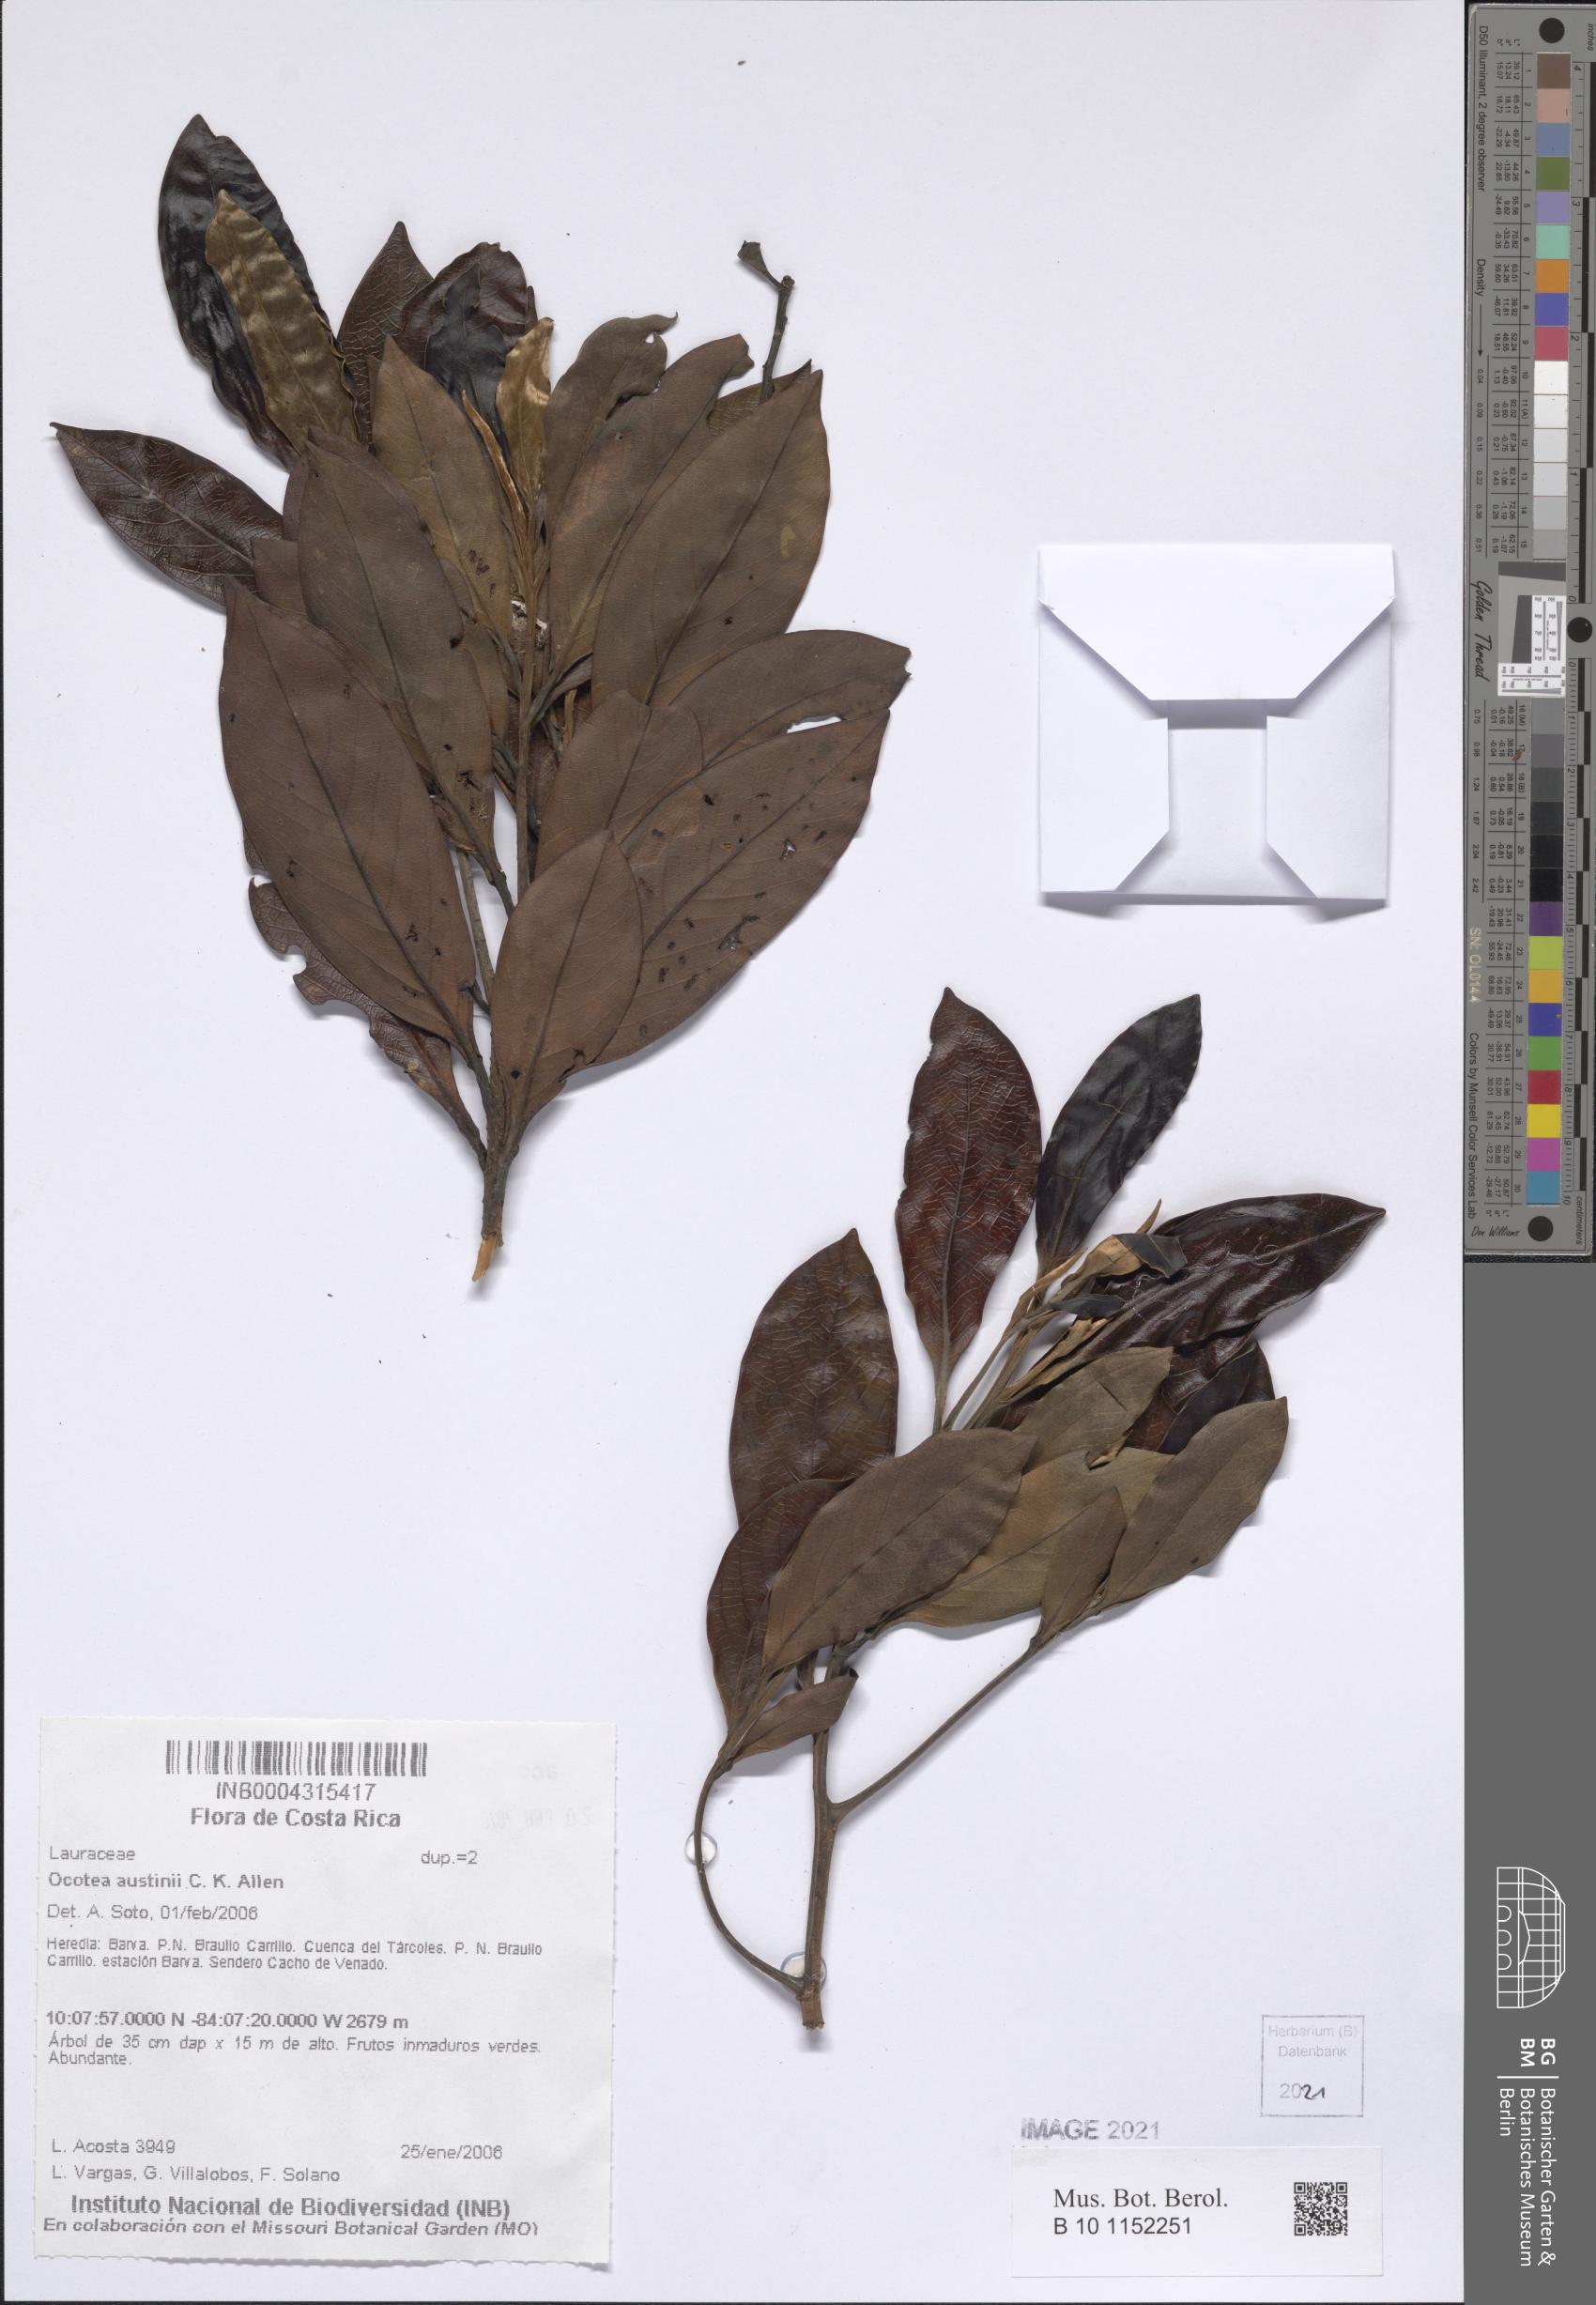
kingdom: Plantae
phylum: Tracheophyta
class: Magnoliopsida
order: Laurales
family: Lauraceae
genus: Ocotea
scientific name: Ocotea austinii
